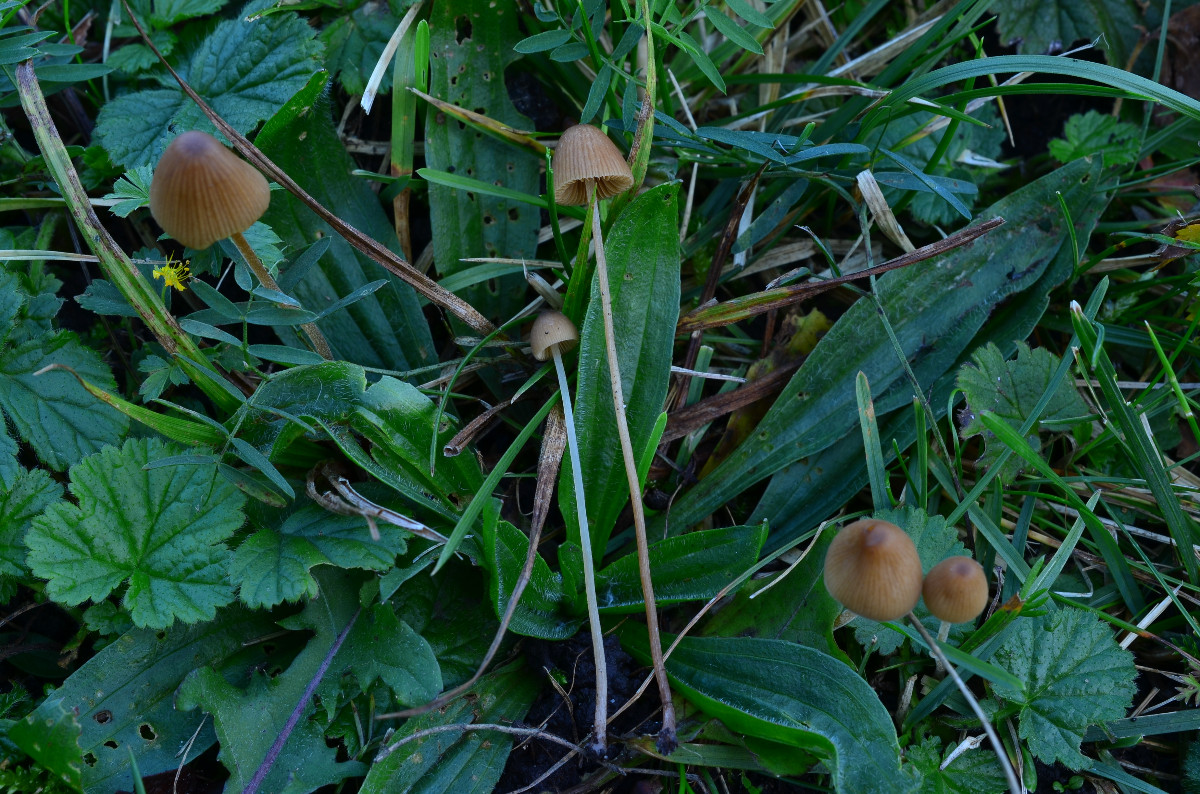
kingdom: Fungi
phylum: Basidiomycota
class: Agaricomycetes
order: Agaricales
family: Bolbitiaceae
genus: Conocybe
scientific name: Conocybe brunneidisca
